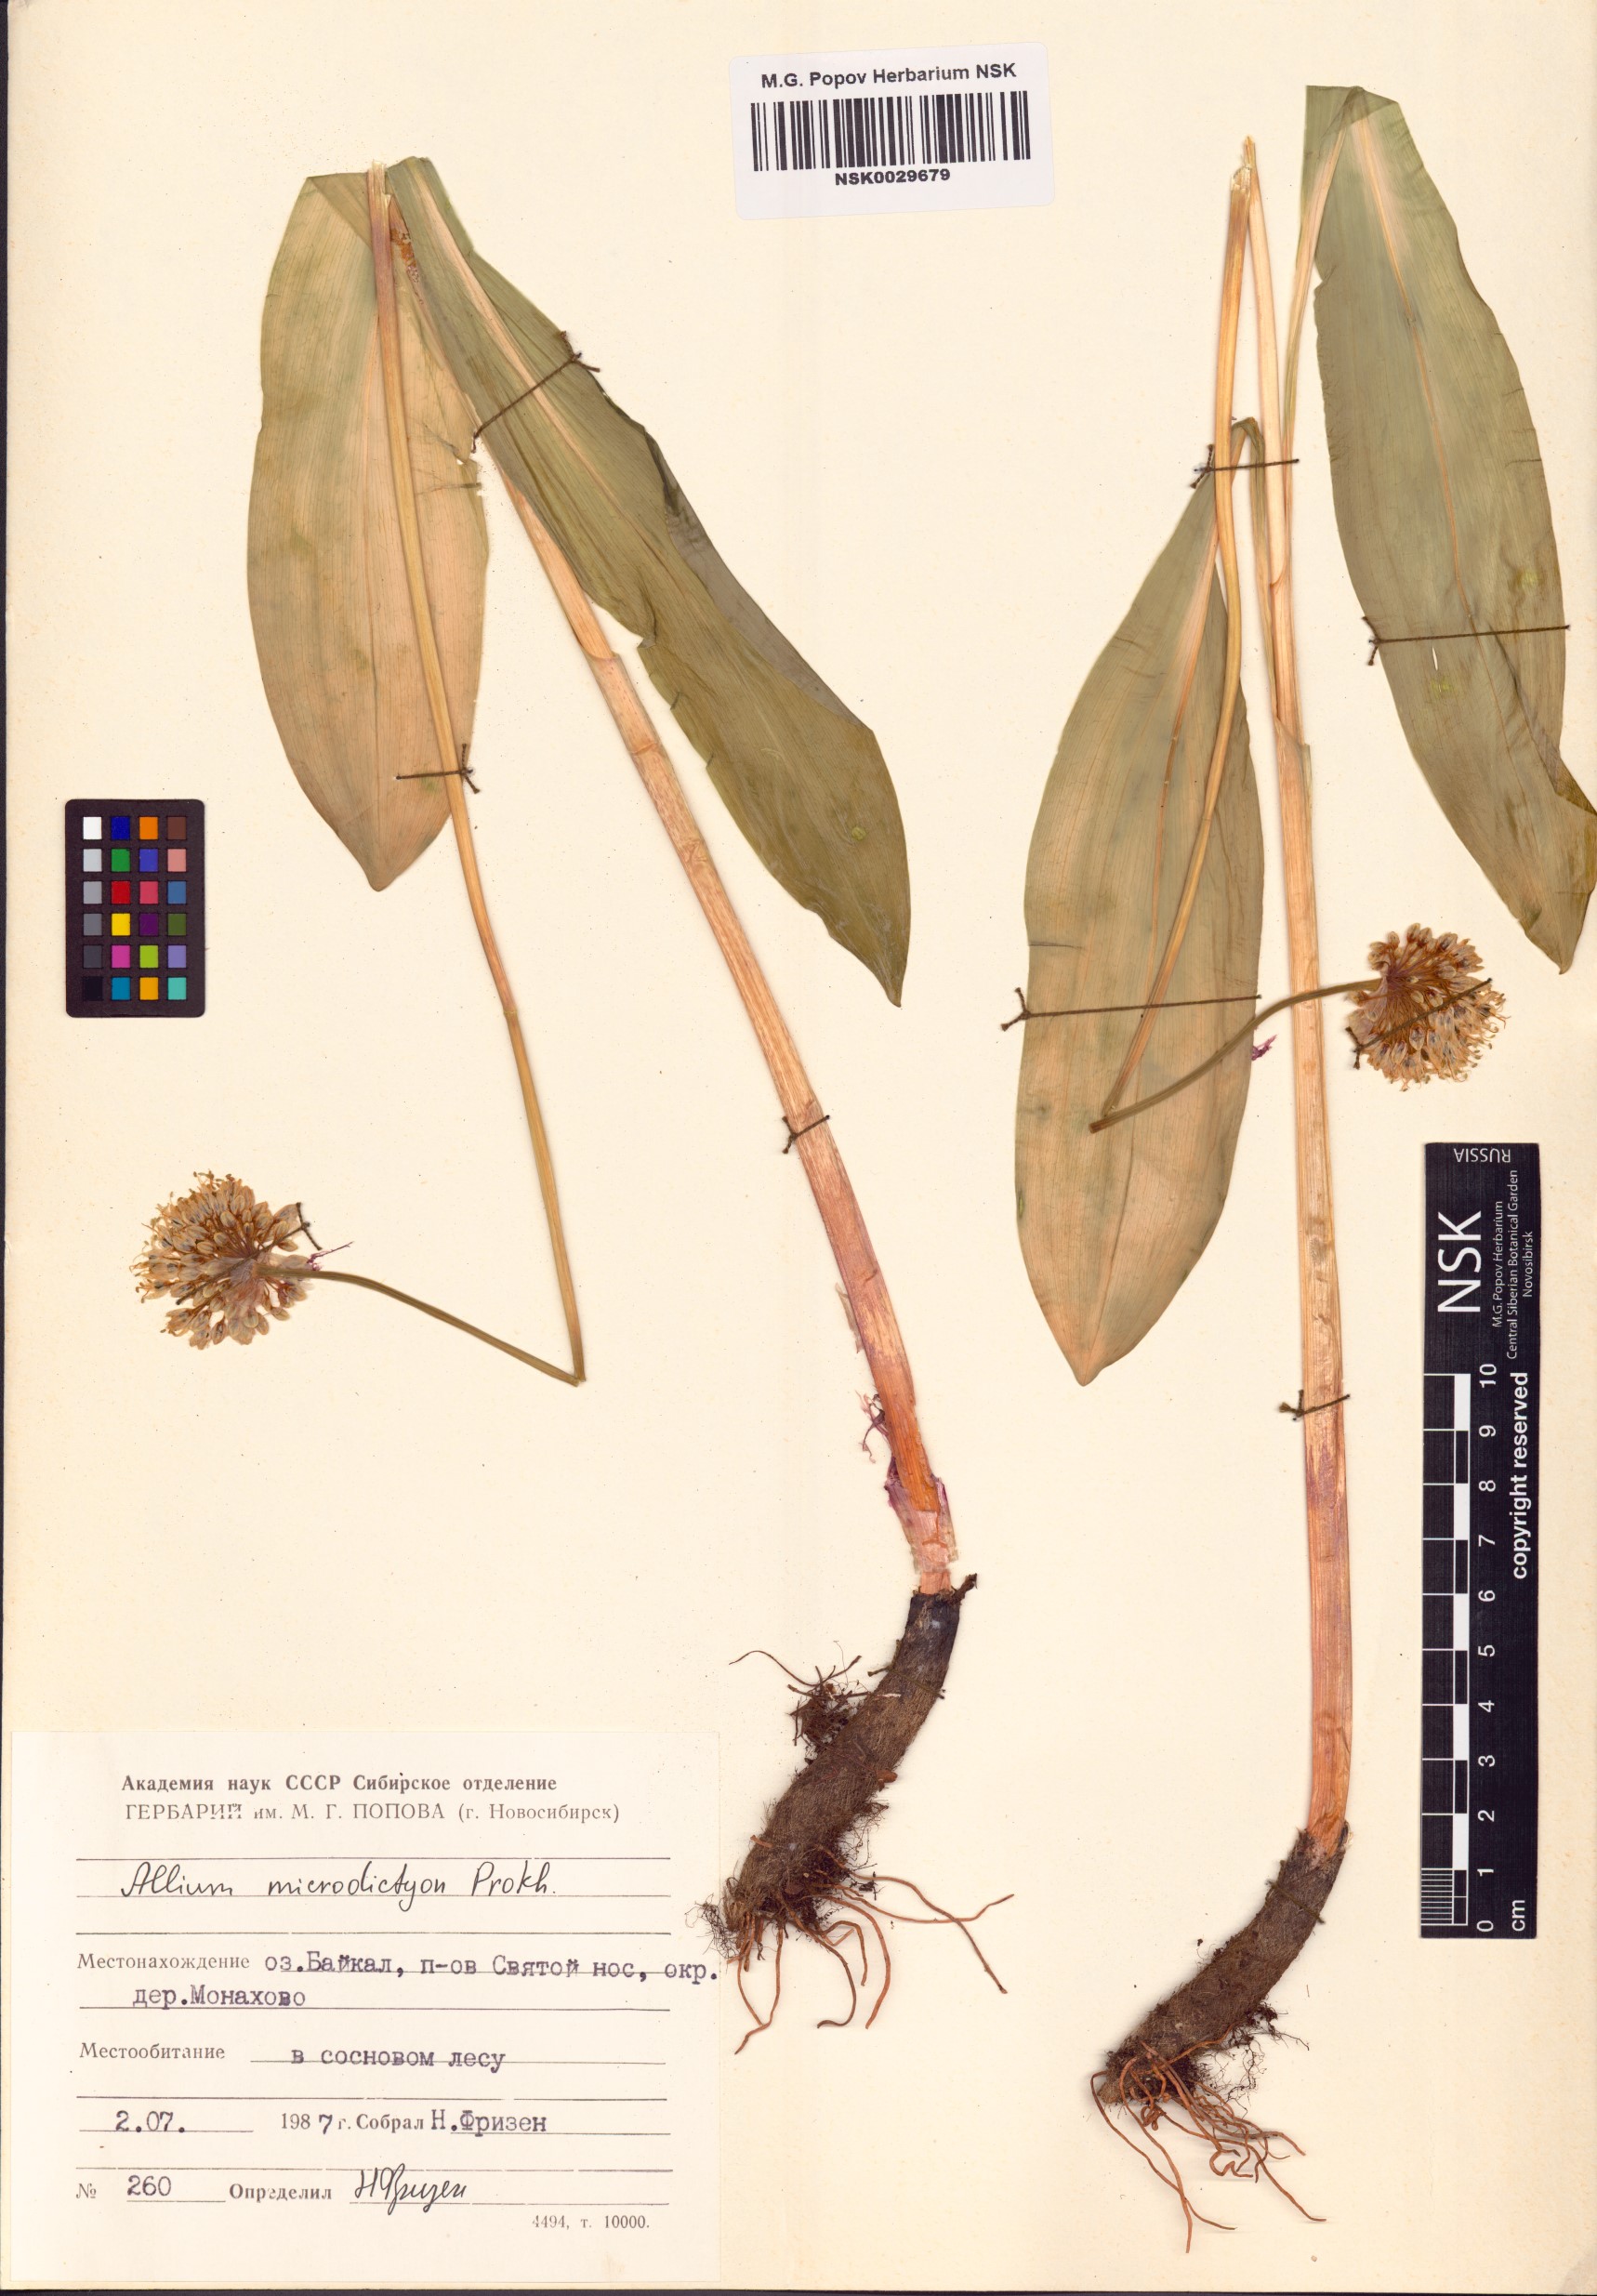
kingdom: Plantae
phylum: Tracheophyta
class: Liliopsida
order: Asparagales
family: Amaryllidaceae
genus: Allium
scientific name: Allium microdictyon
